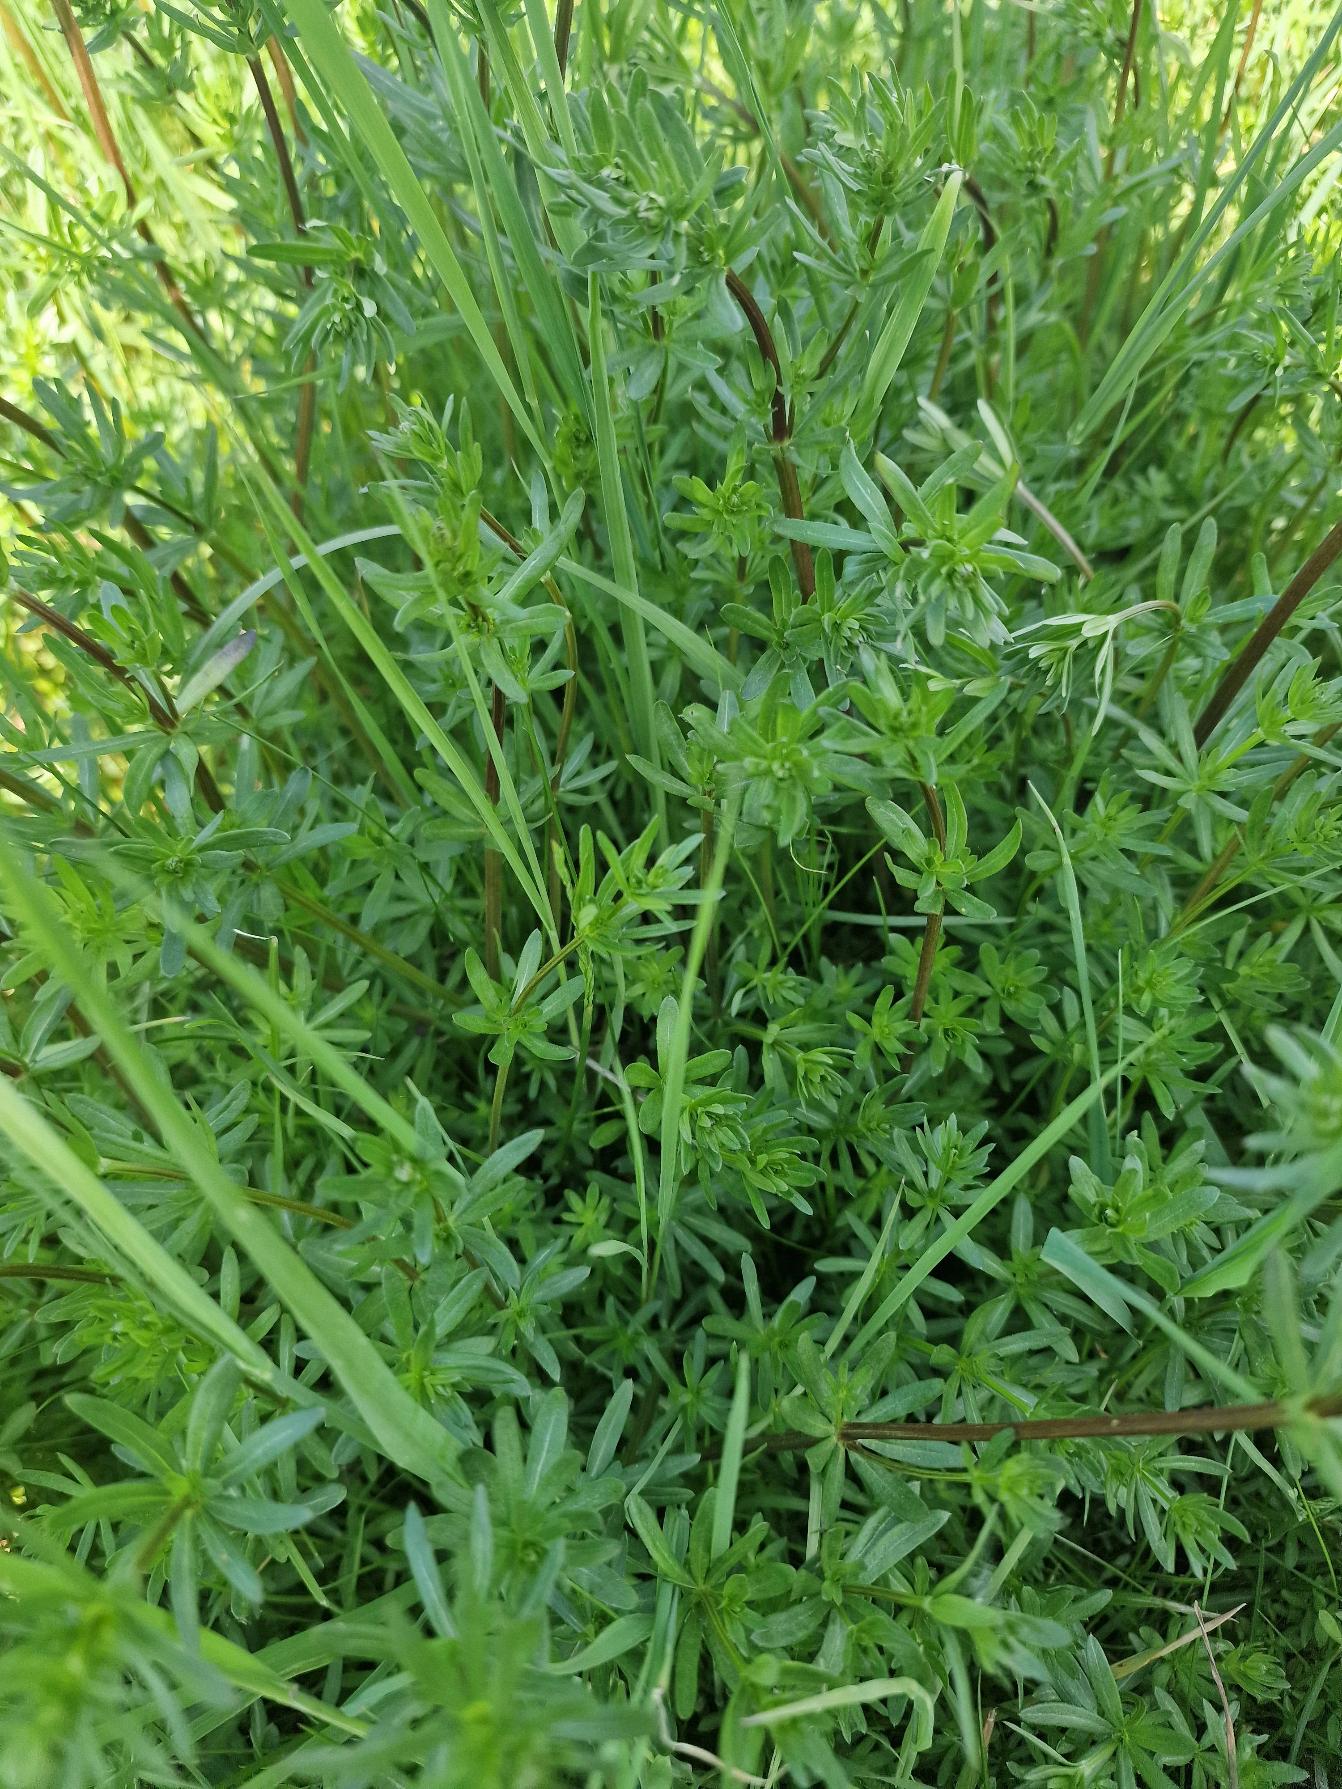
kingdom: Plantae
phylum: Tracheophyta
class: Magnoliopsida
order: Gentianales
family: Rubiaceae
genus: Galium
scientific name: Galium mollugo
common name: Hvid snerre
